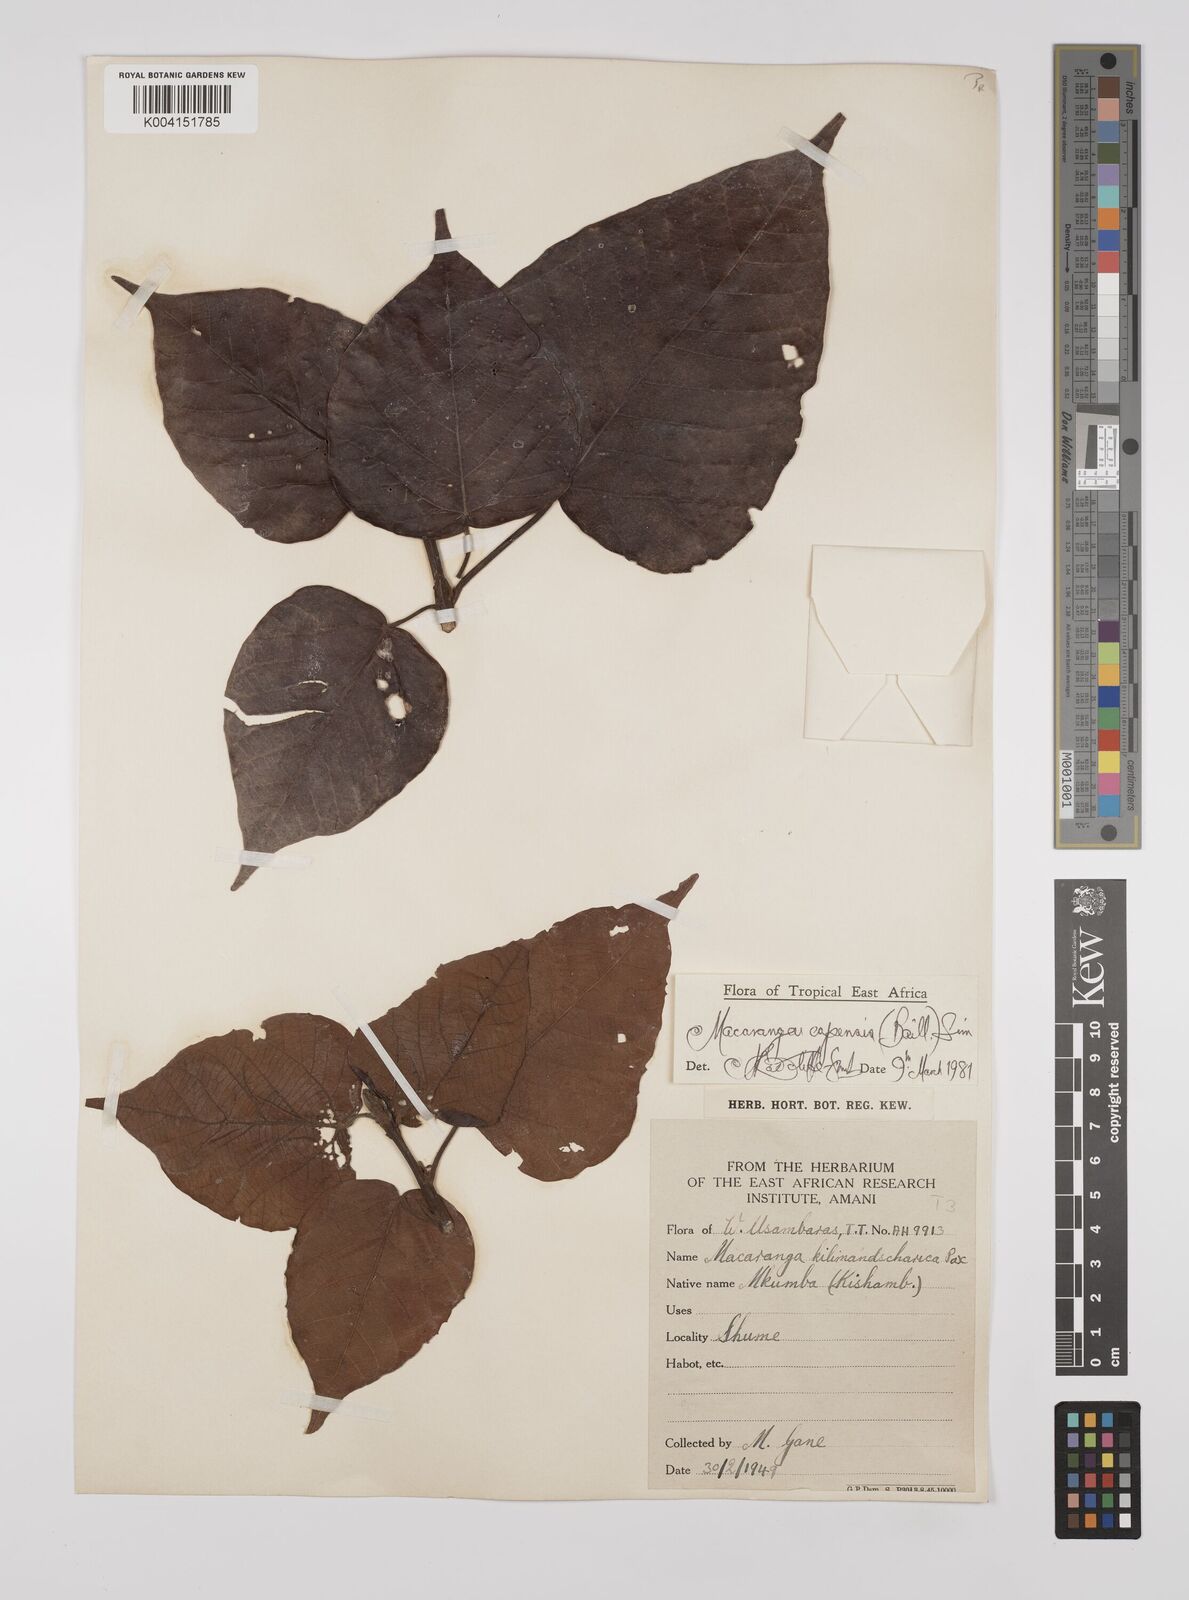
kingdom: Plantae
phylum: Tracheophyta
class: Magnoliopsida
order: Malpighiales
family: Euphorbiaceae
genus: Macaranga
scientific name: Macaranga capensis
